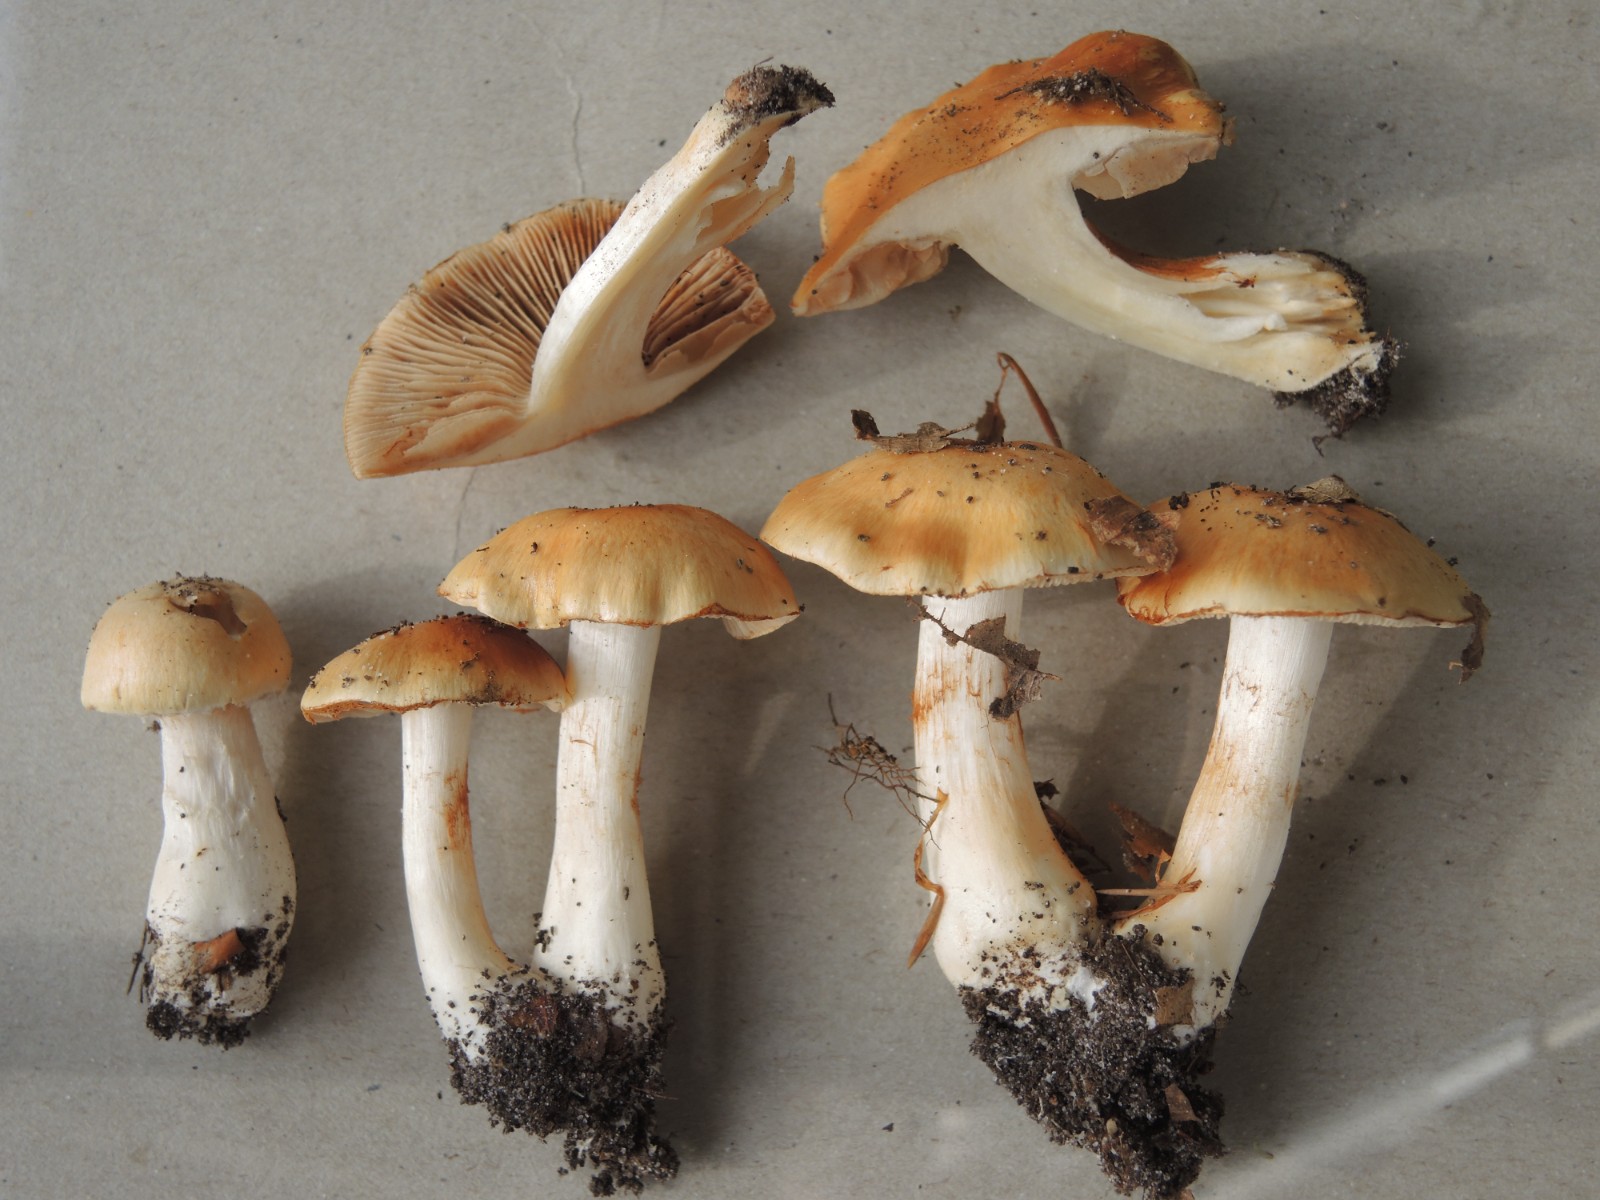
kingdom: Fungi
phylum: Basidiomycota
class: Agaricomycetes
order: Agaricales
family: Cortinariaceae
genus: Thaxterogaster
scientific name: Thaxterogaster emollitus
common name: besk slørhat
